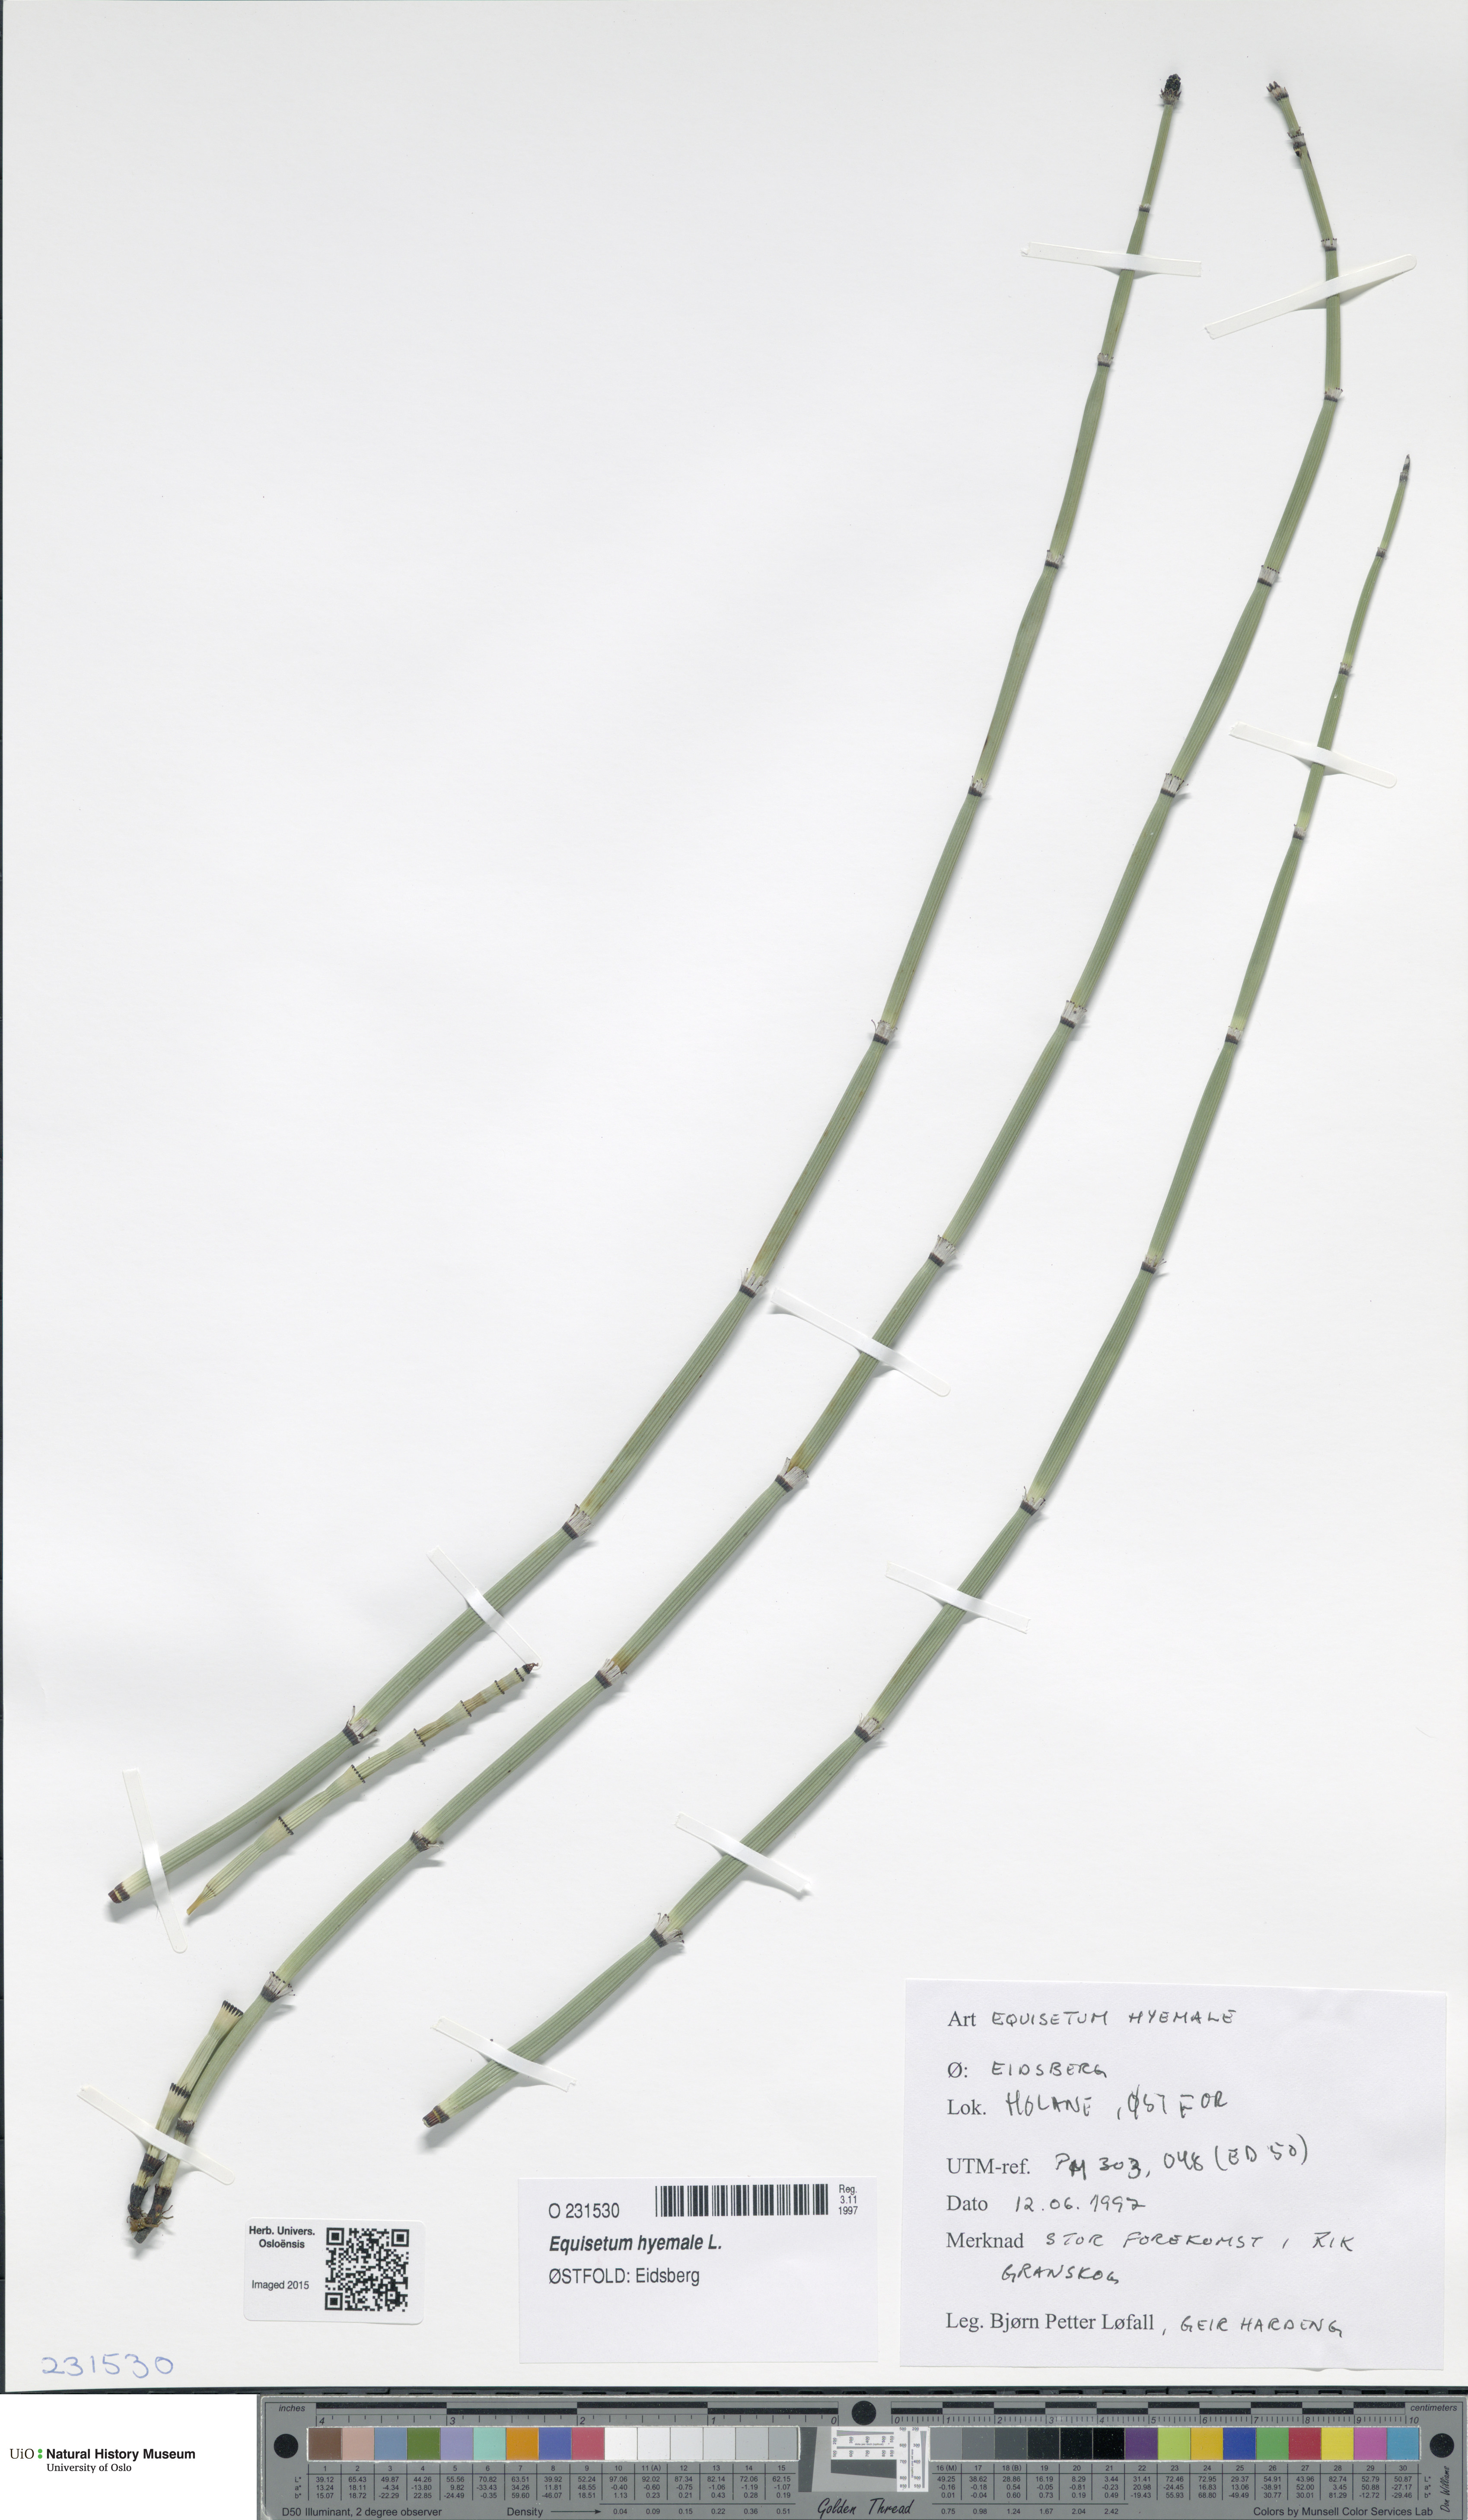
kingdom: Plantae
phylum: Tracheophyta
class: Polypodiopsida
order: Equisetales
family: Equisetaceae
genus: Equisetum
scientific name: Equisetum hyemale
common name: Rough horsetail
